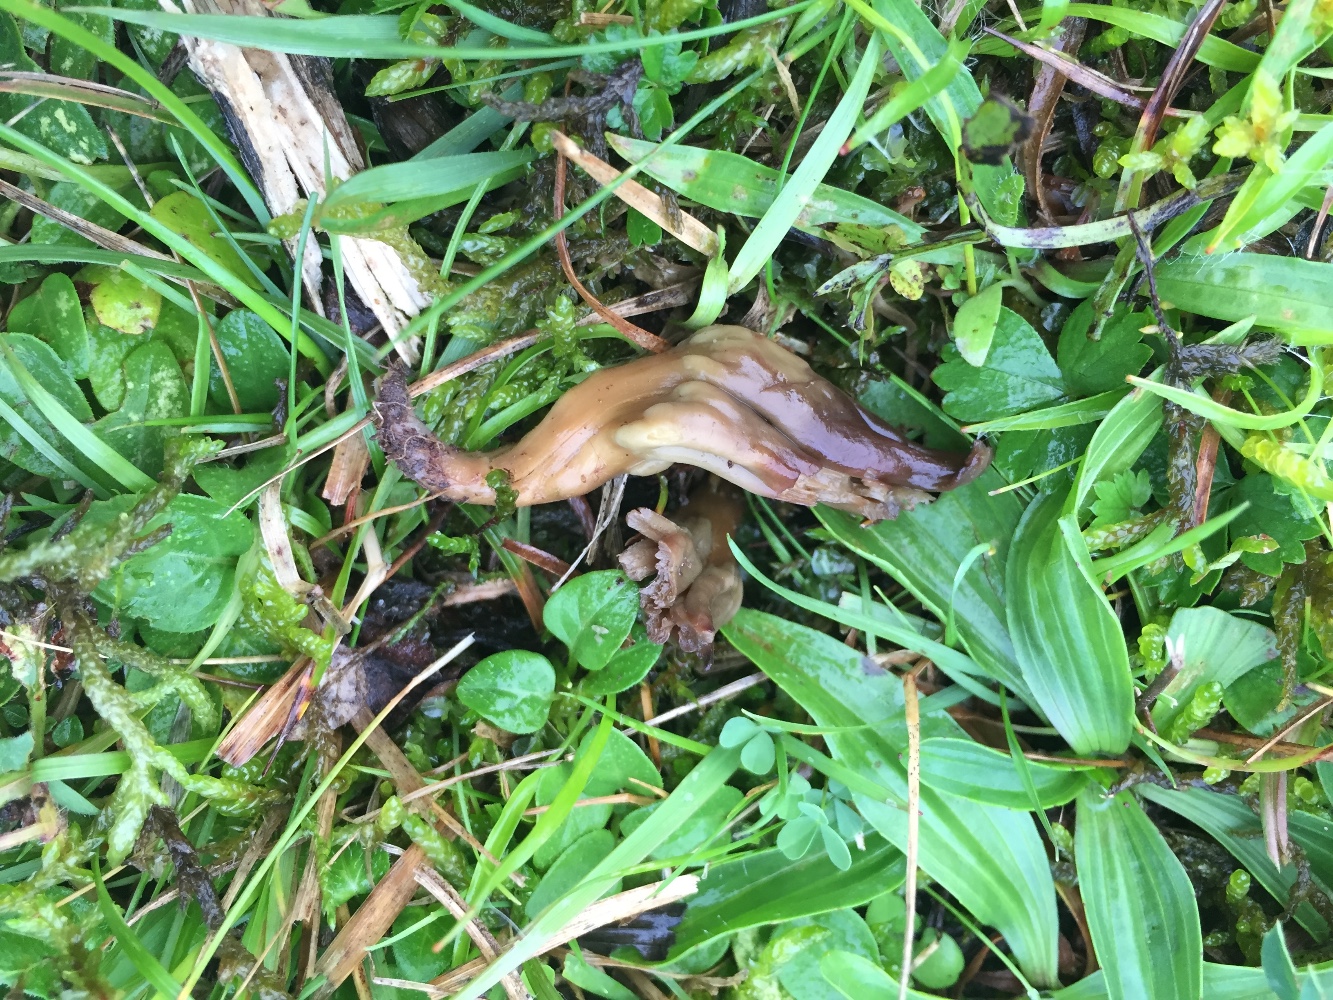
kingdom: Fungi
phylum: Ascomycota
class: Leotiomycetes
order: Leotiales
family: Leotiaceae
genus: Microglossum
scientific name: Microglossum olivaceum
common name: olivenbrun farvetunge
